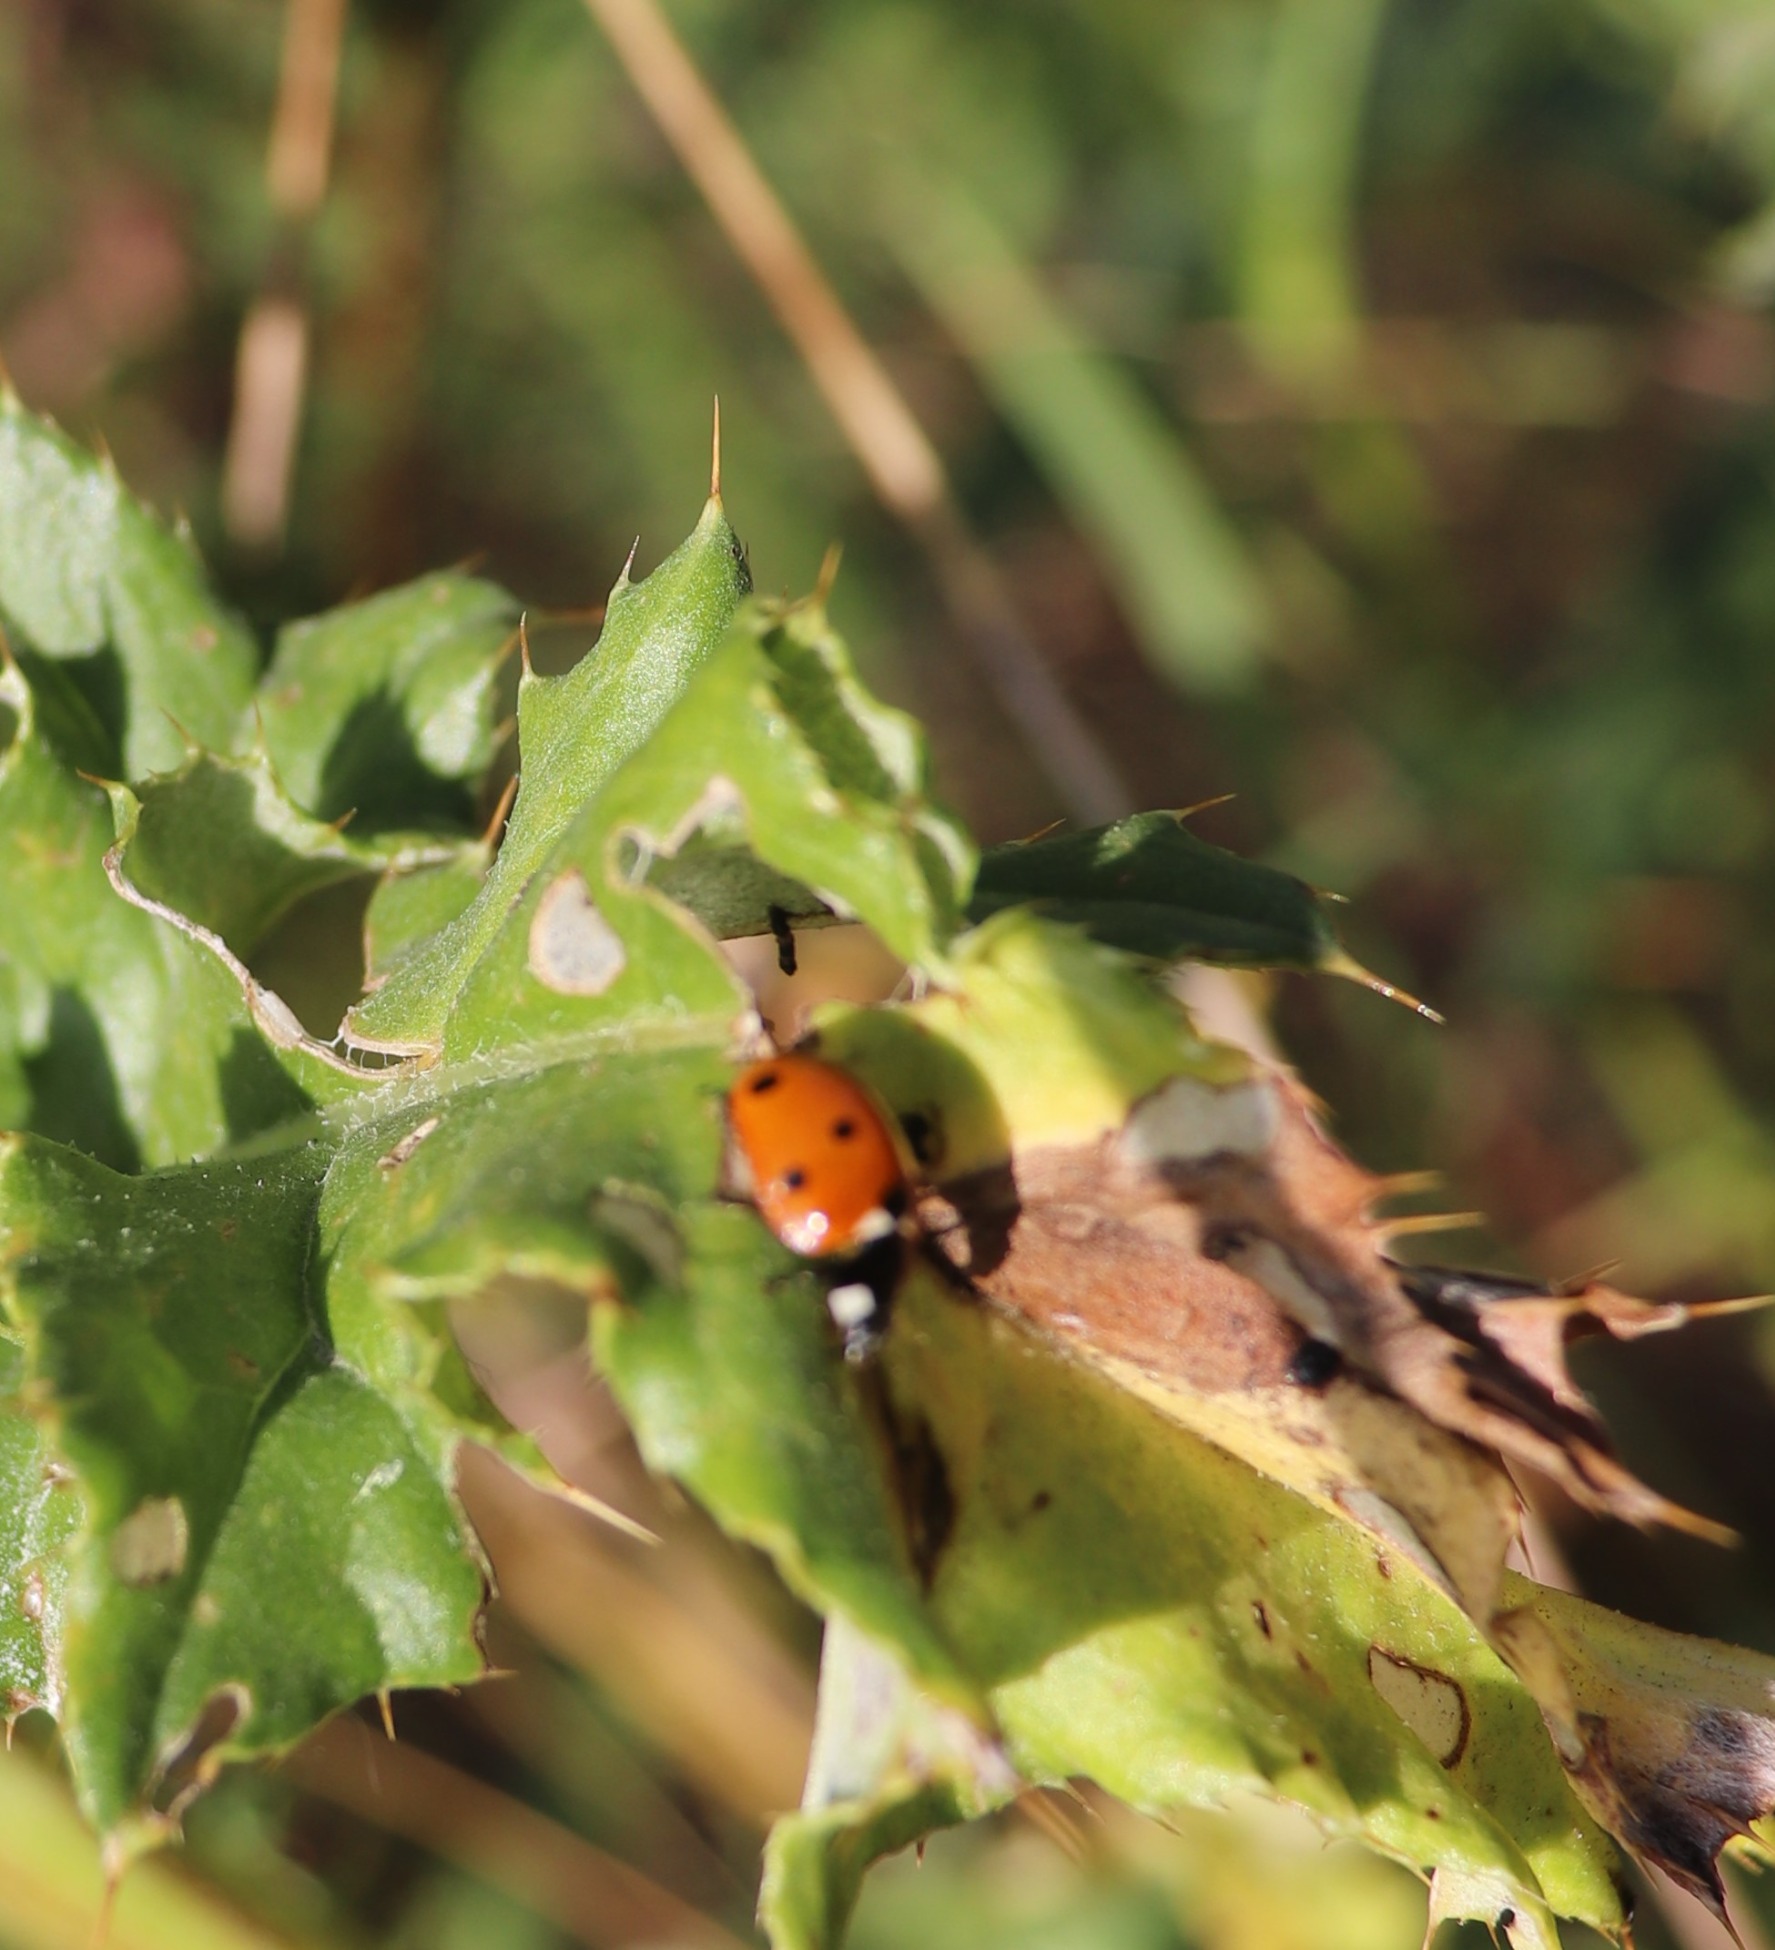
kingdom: Animalia
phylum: Arthropoda
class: Insecta
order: Coleoptera
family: Coccinellidae
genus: Coccinella
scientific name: Coccinella septempunctata
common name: Syvplettet mariehøne
